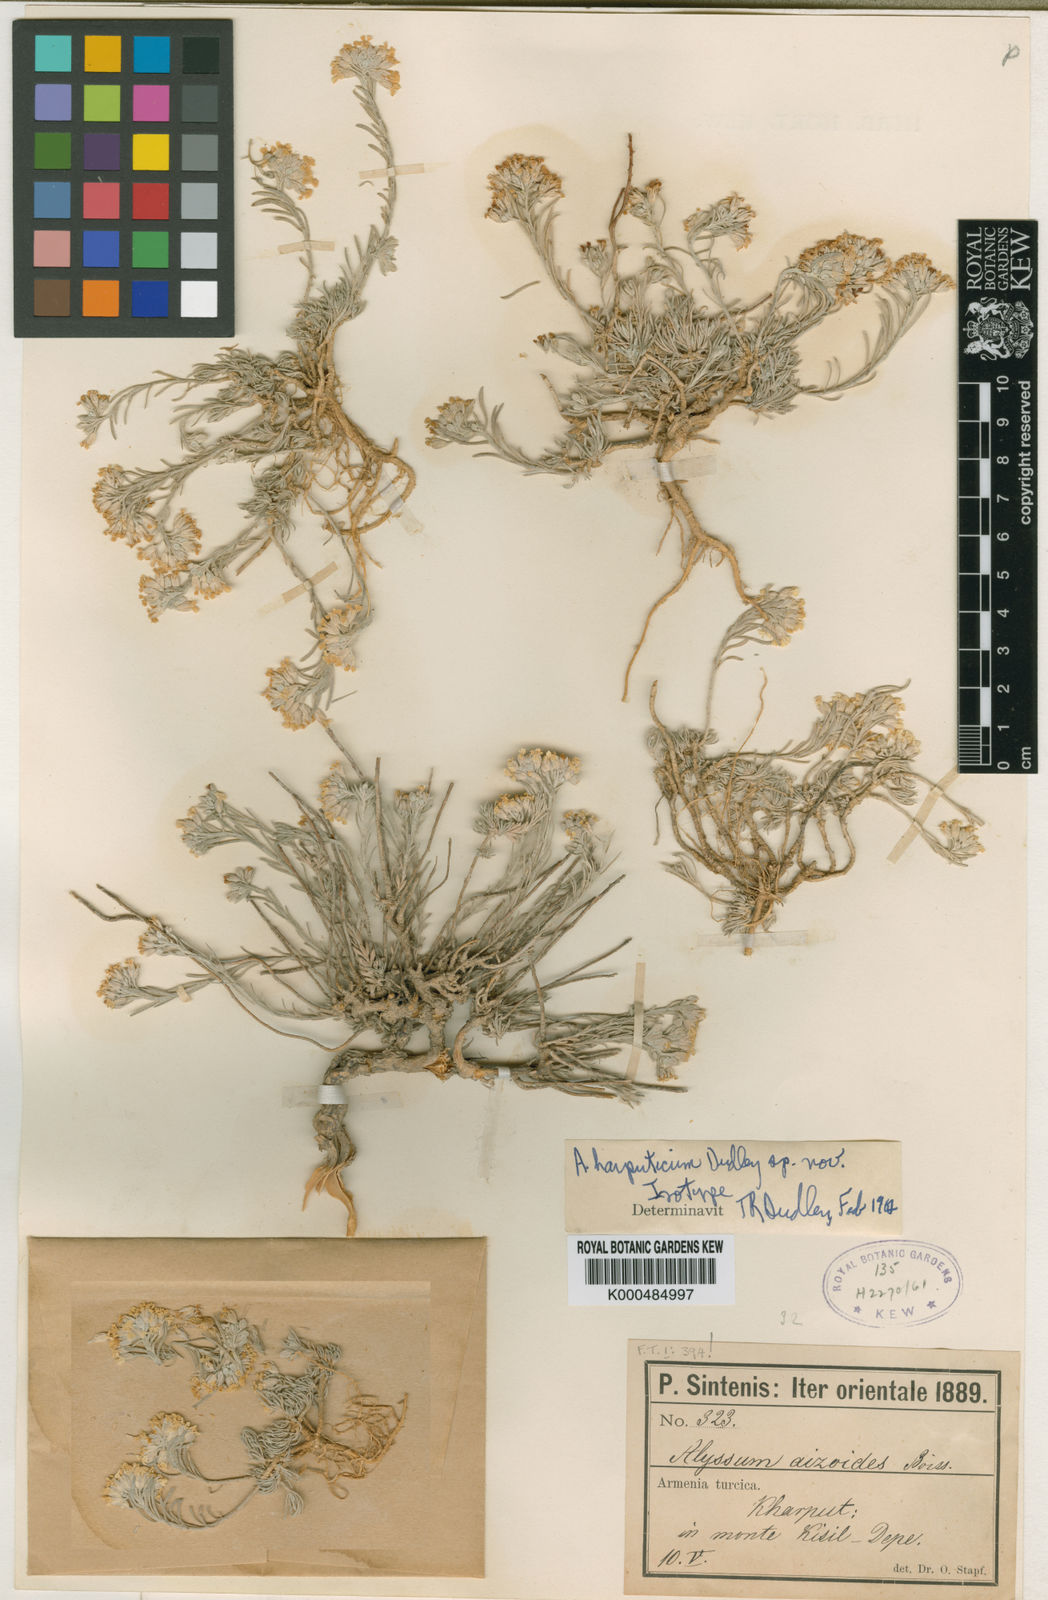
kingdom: Plantae
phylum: Tracheophyta
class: Magnoliopsida
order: Brassicales
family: Brassicaceae
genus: Alyssum
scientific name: Alyssum harputicum
